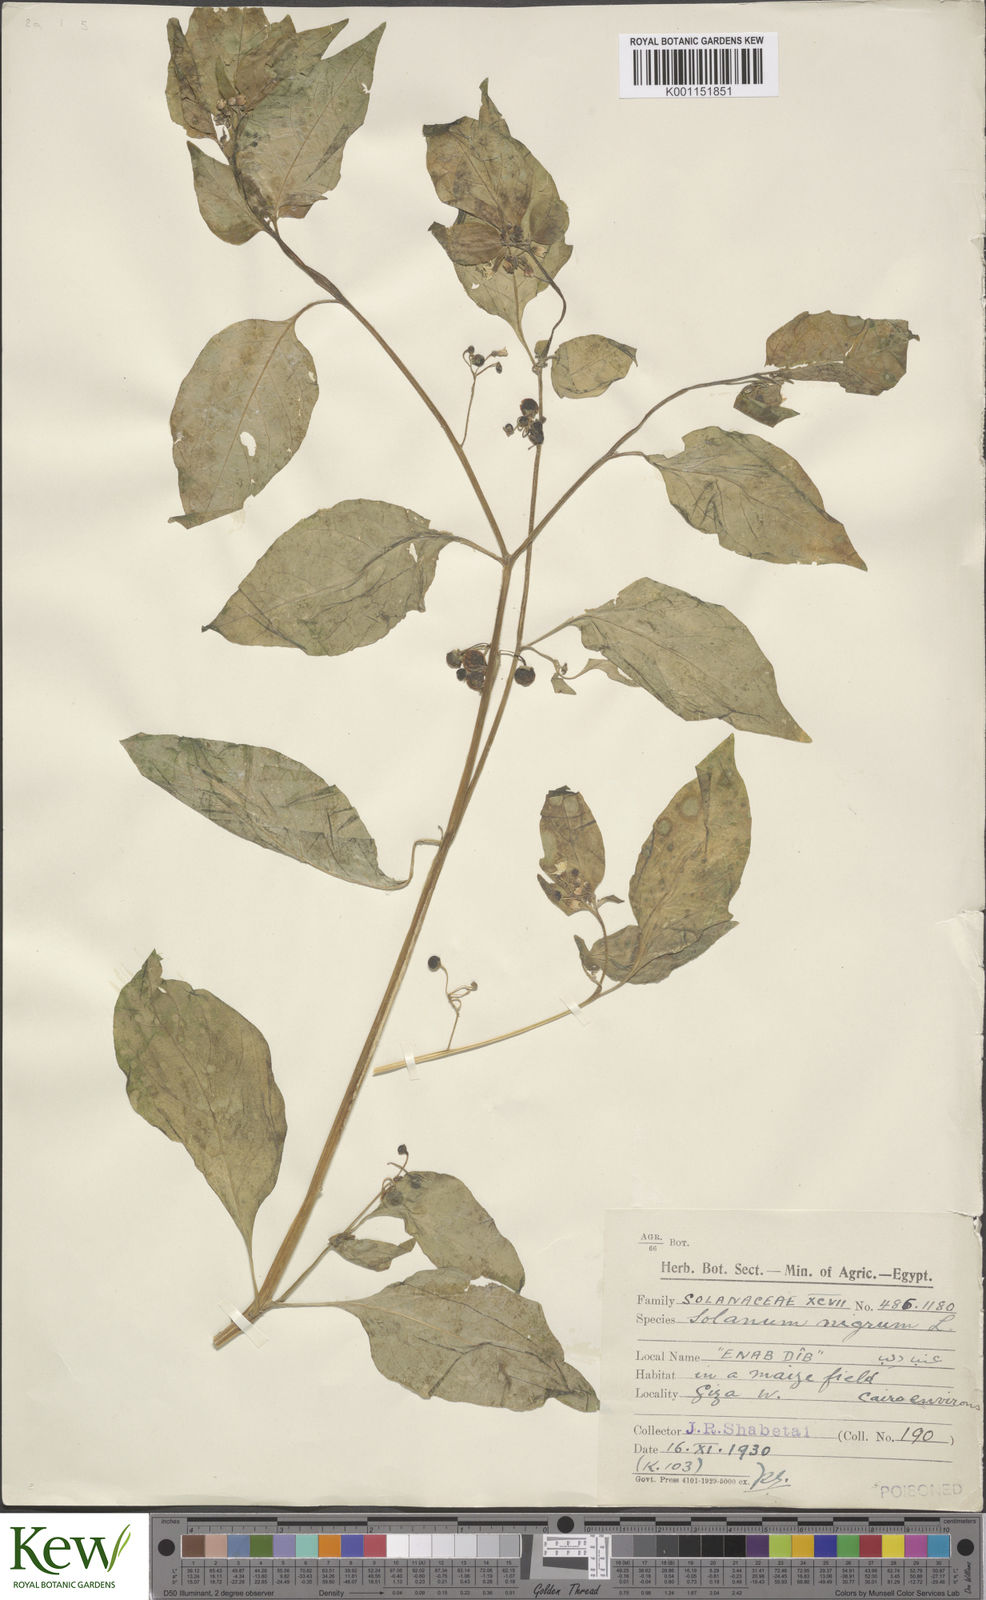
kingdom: Plantae
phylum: Tracheophyta
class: Magnoliopsida
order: Solanales
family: Solanaceae
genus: Solanum
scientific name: Solanum americanum
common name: American black nightshade
